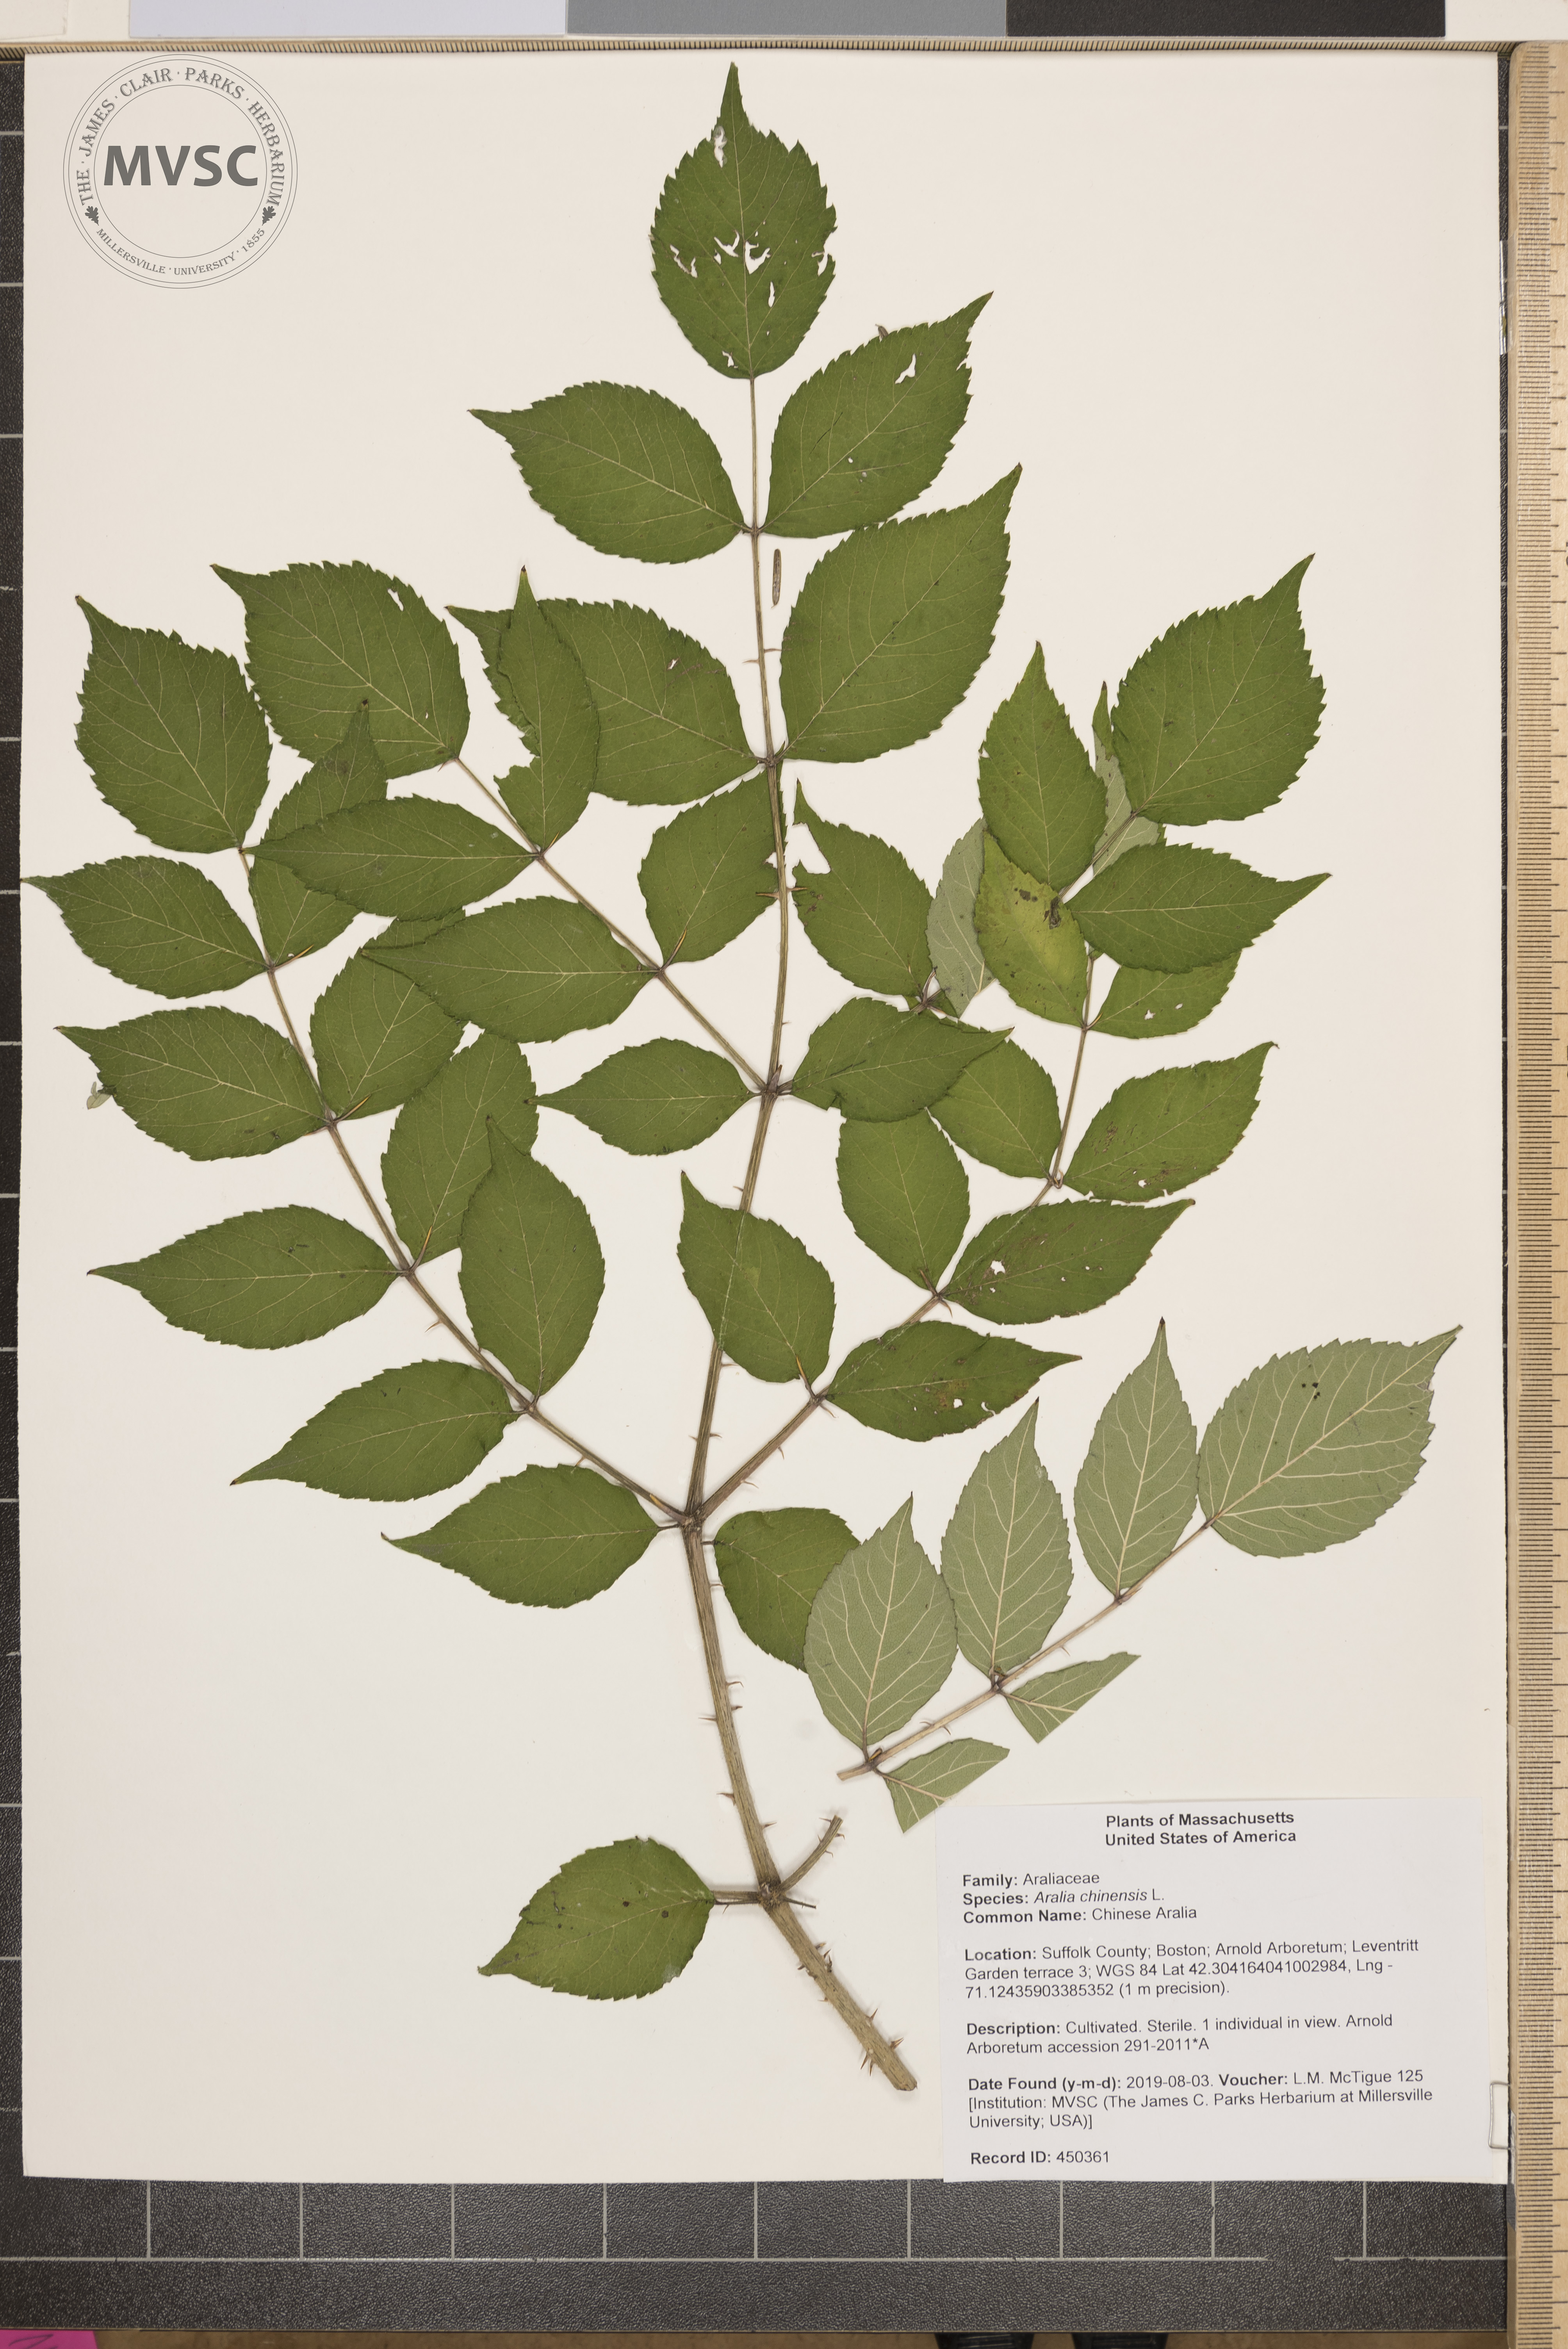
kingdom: Plantae
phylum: Tracheophyta
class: Magnoliopsida
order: Apiales
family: Araliaceae
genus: Aralia
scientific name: Aralia chinensis
